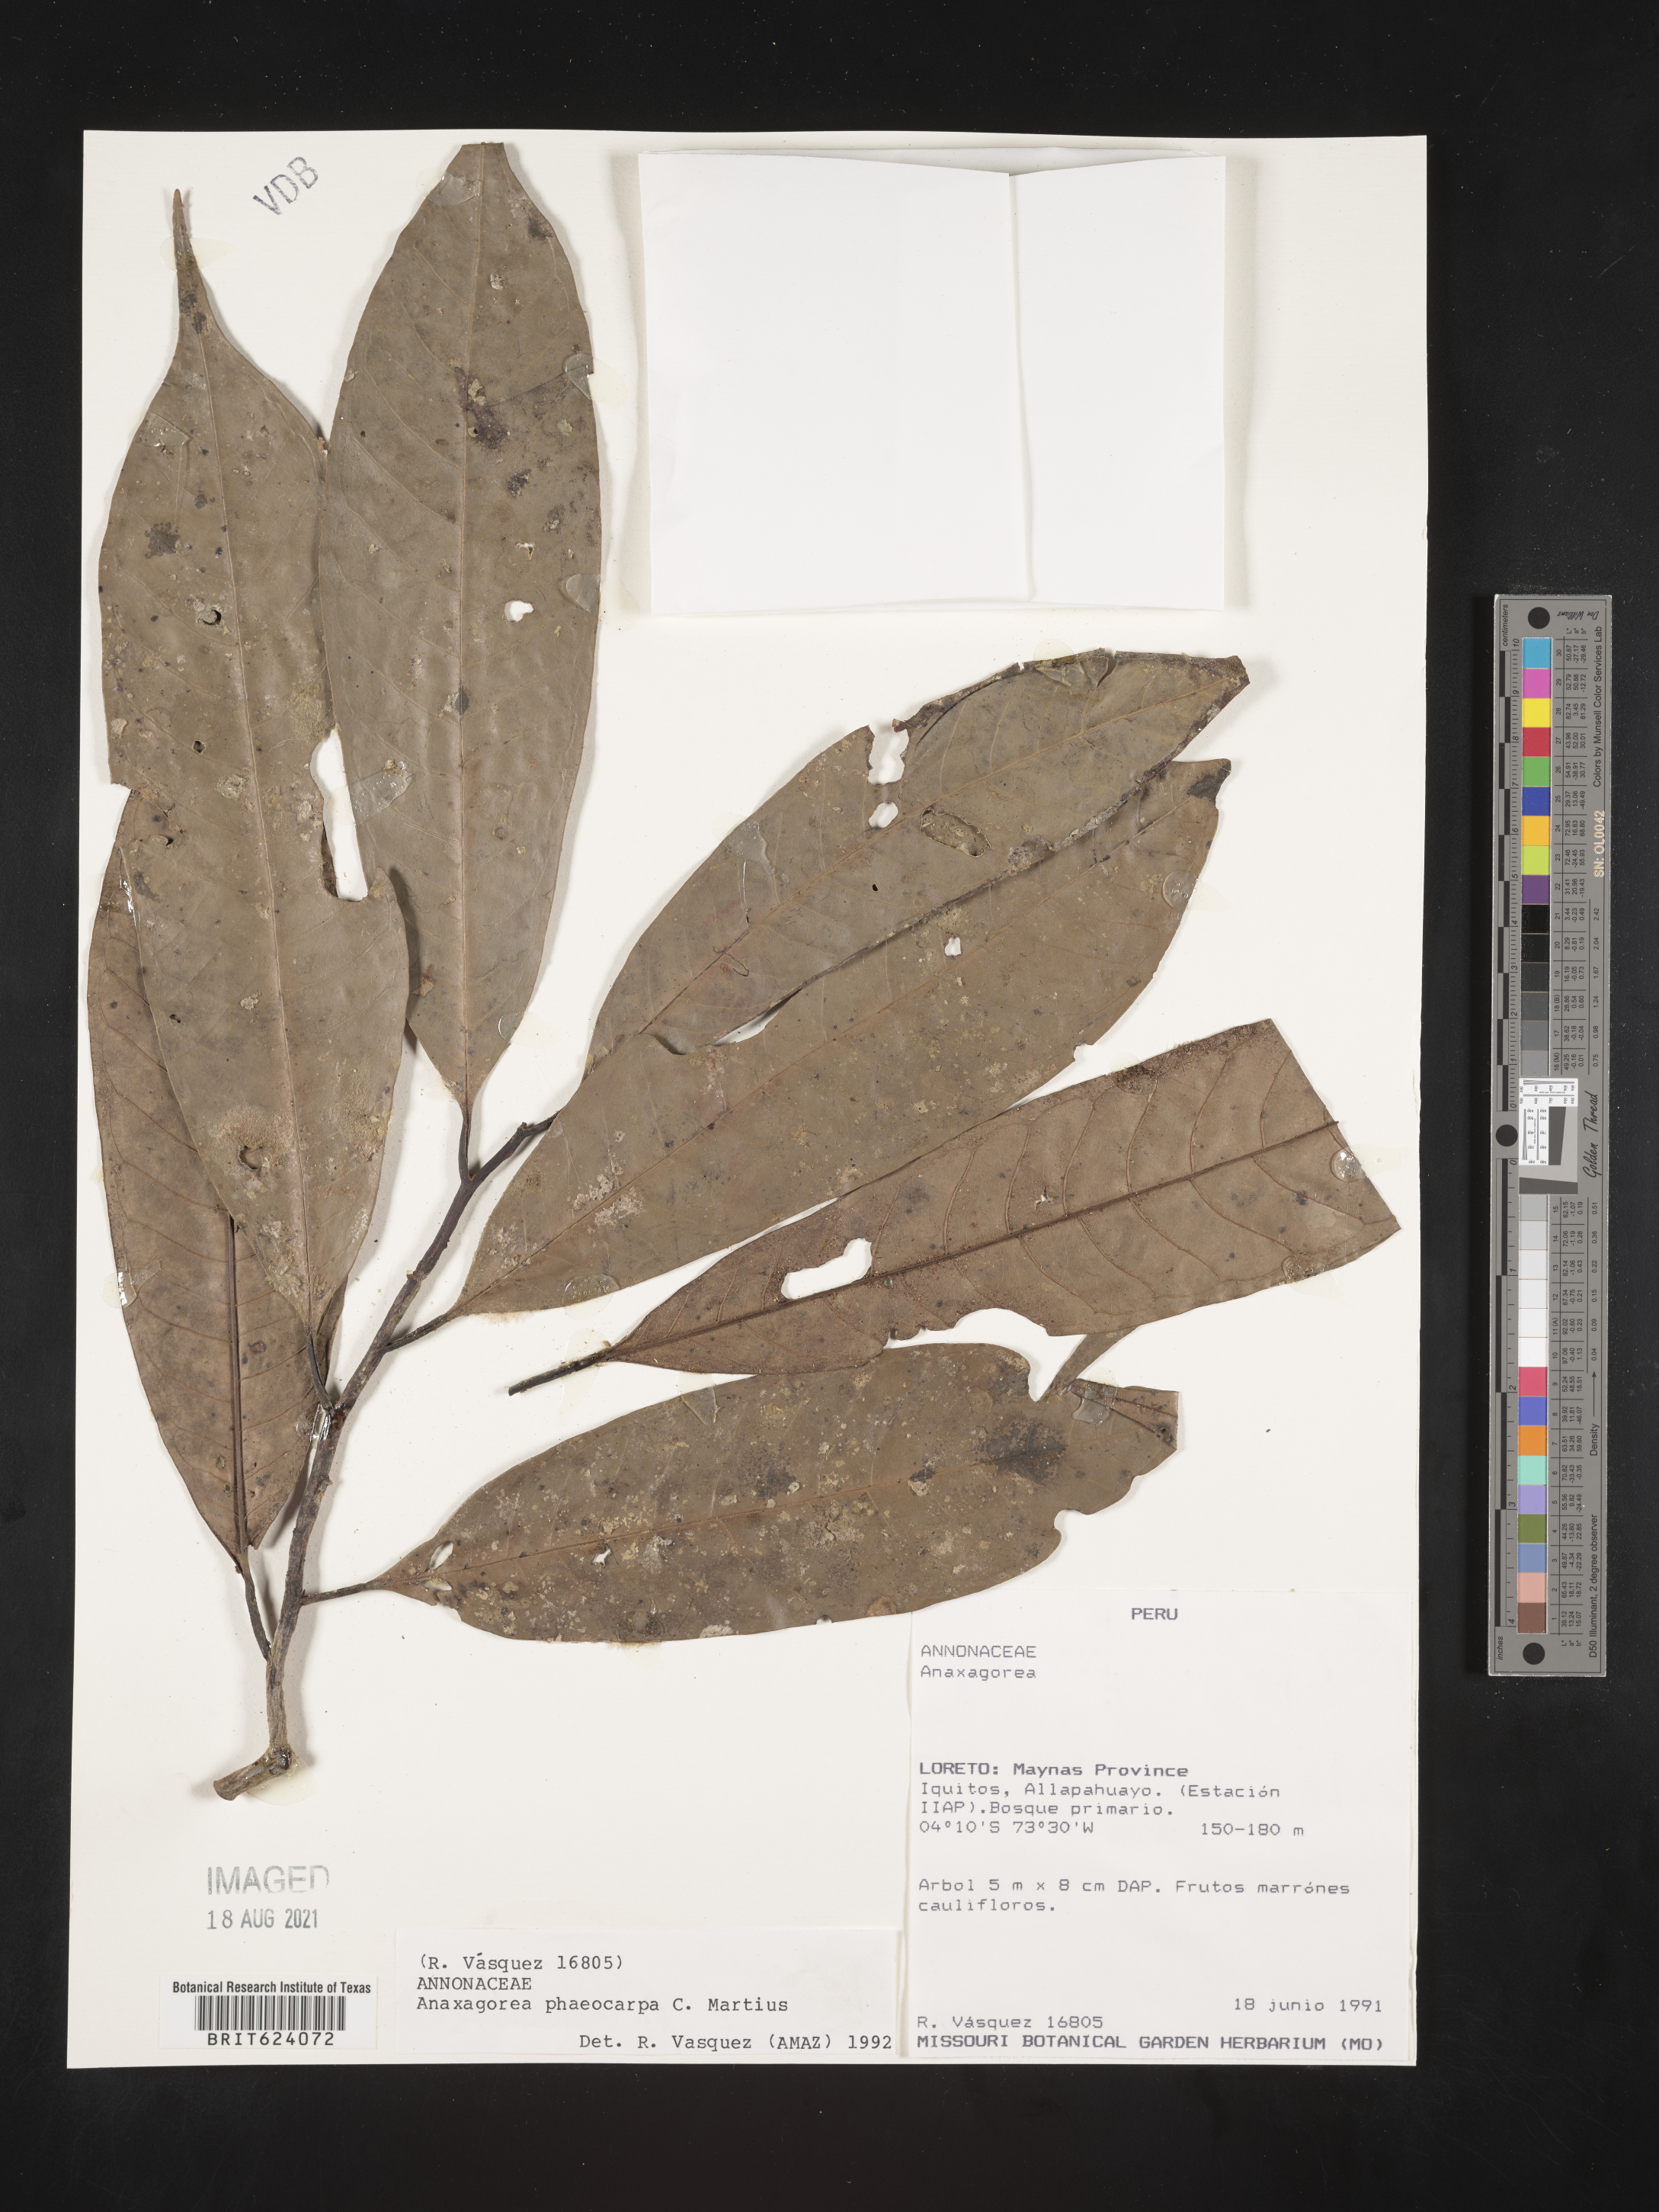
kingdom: Plantae
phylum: Tracheophyta
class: Magnoliopsida
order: Magnoliales
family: Annonaceae
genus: Anaxagorea
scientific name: Anaxagorea phaeocarpa
